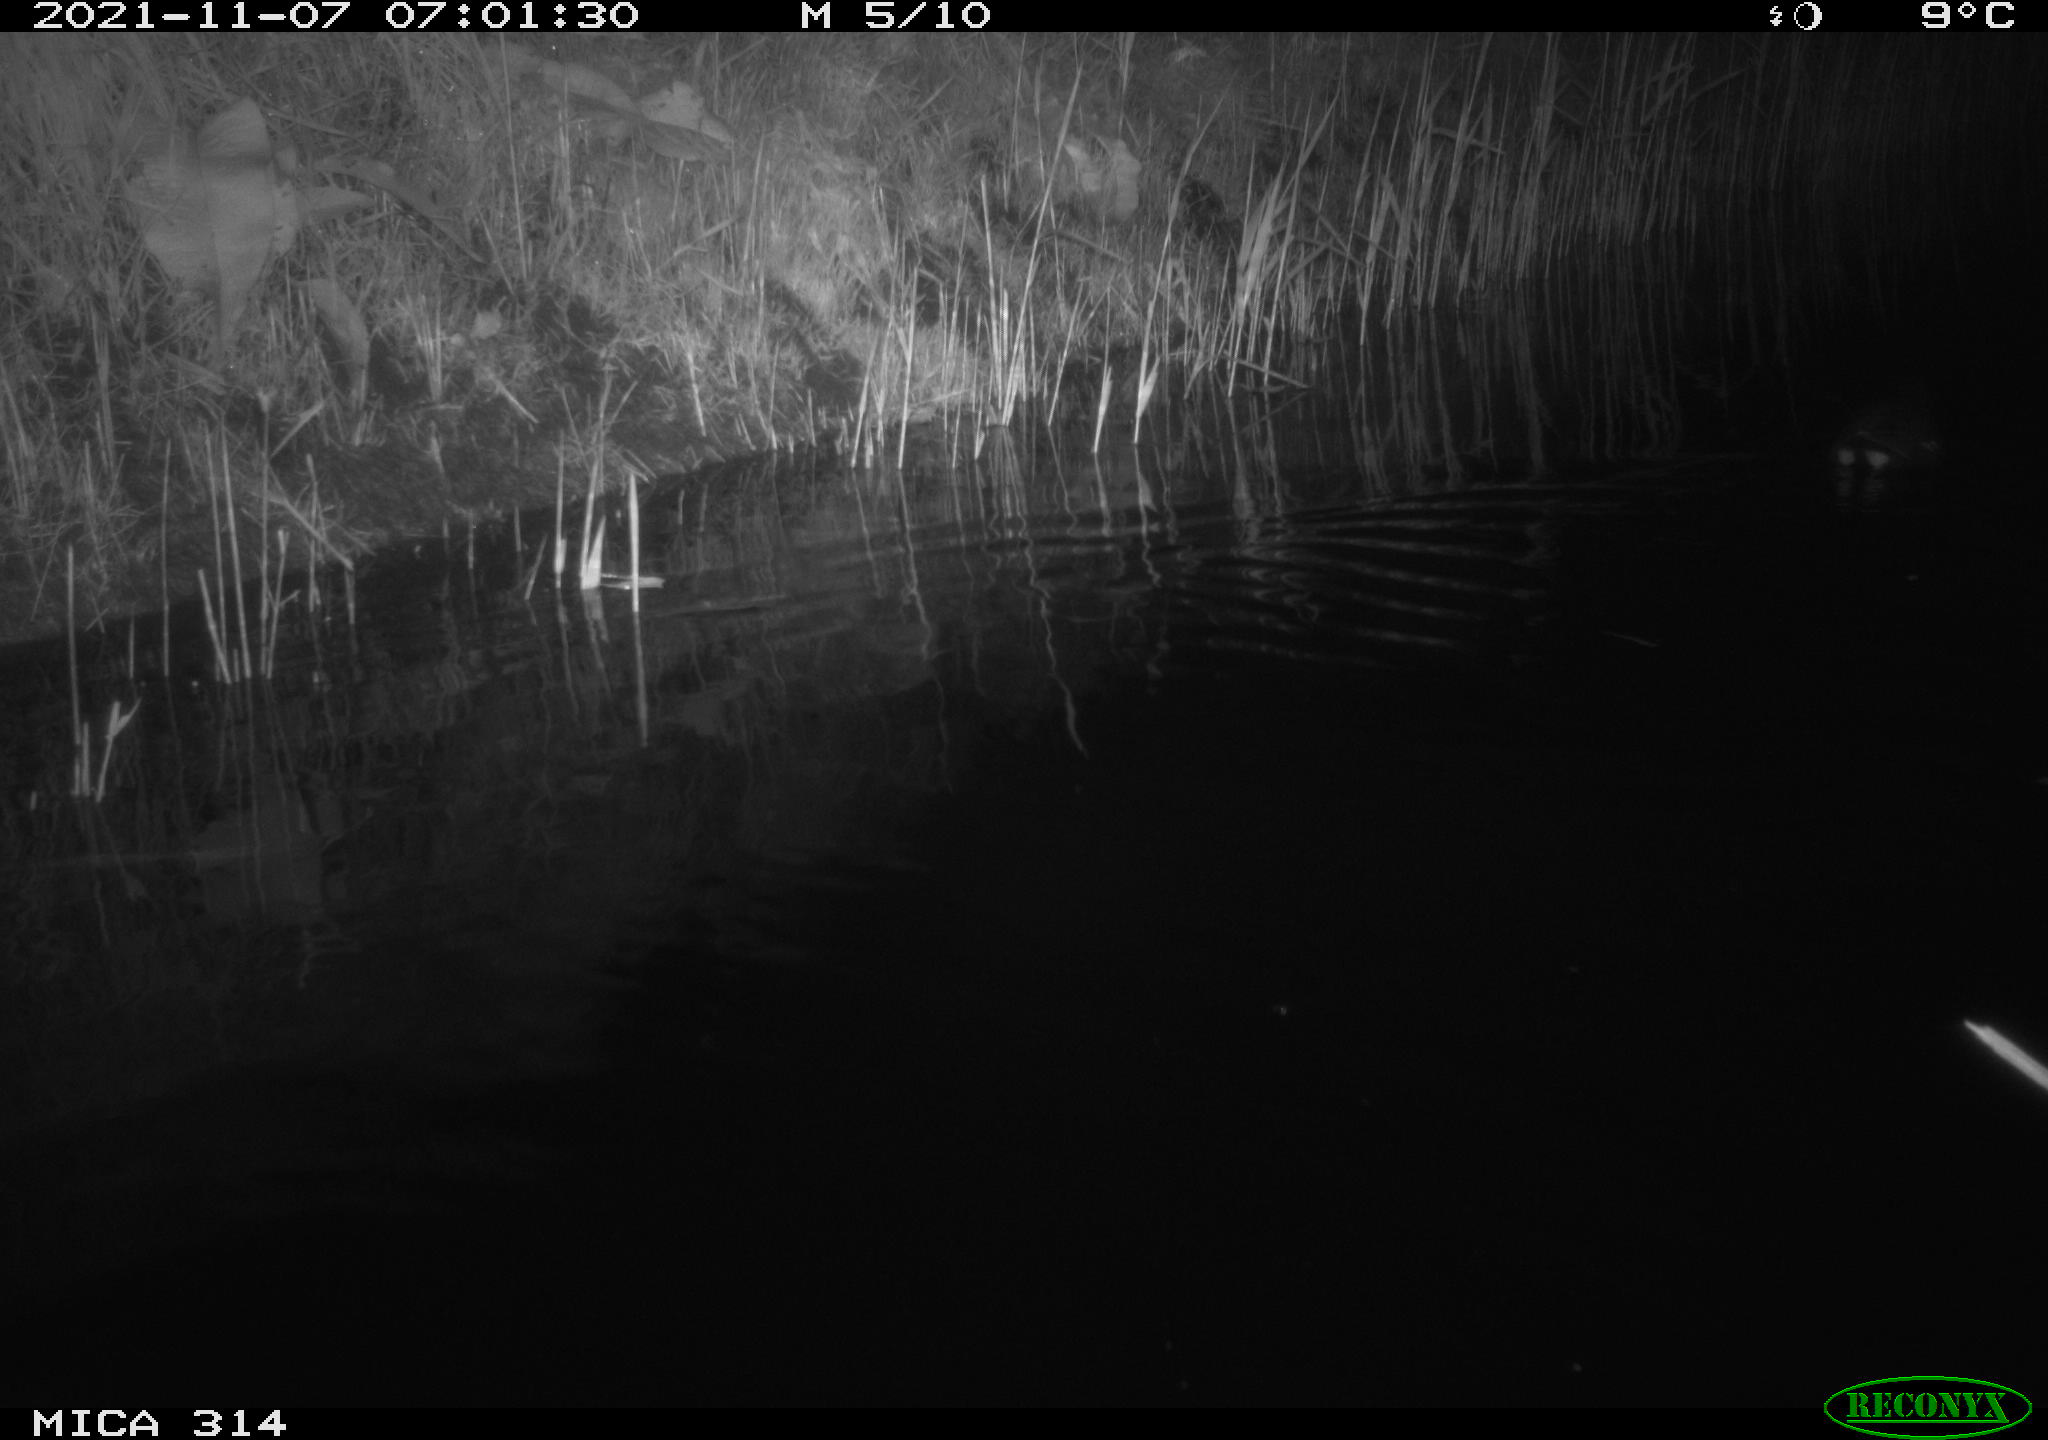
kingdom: Animalia
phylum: Chordata
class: Aves
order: Gruiformes
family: Rallidae
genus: Gallinula
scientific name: Gallinula chloropus
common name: Common moorhen
